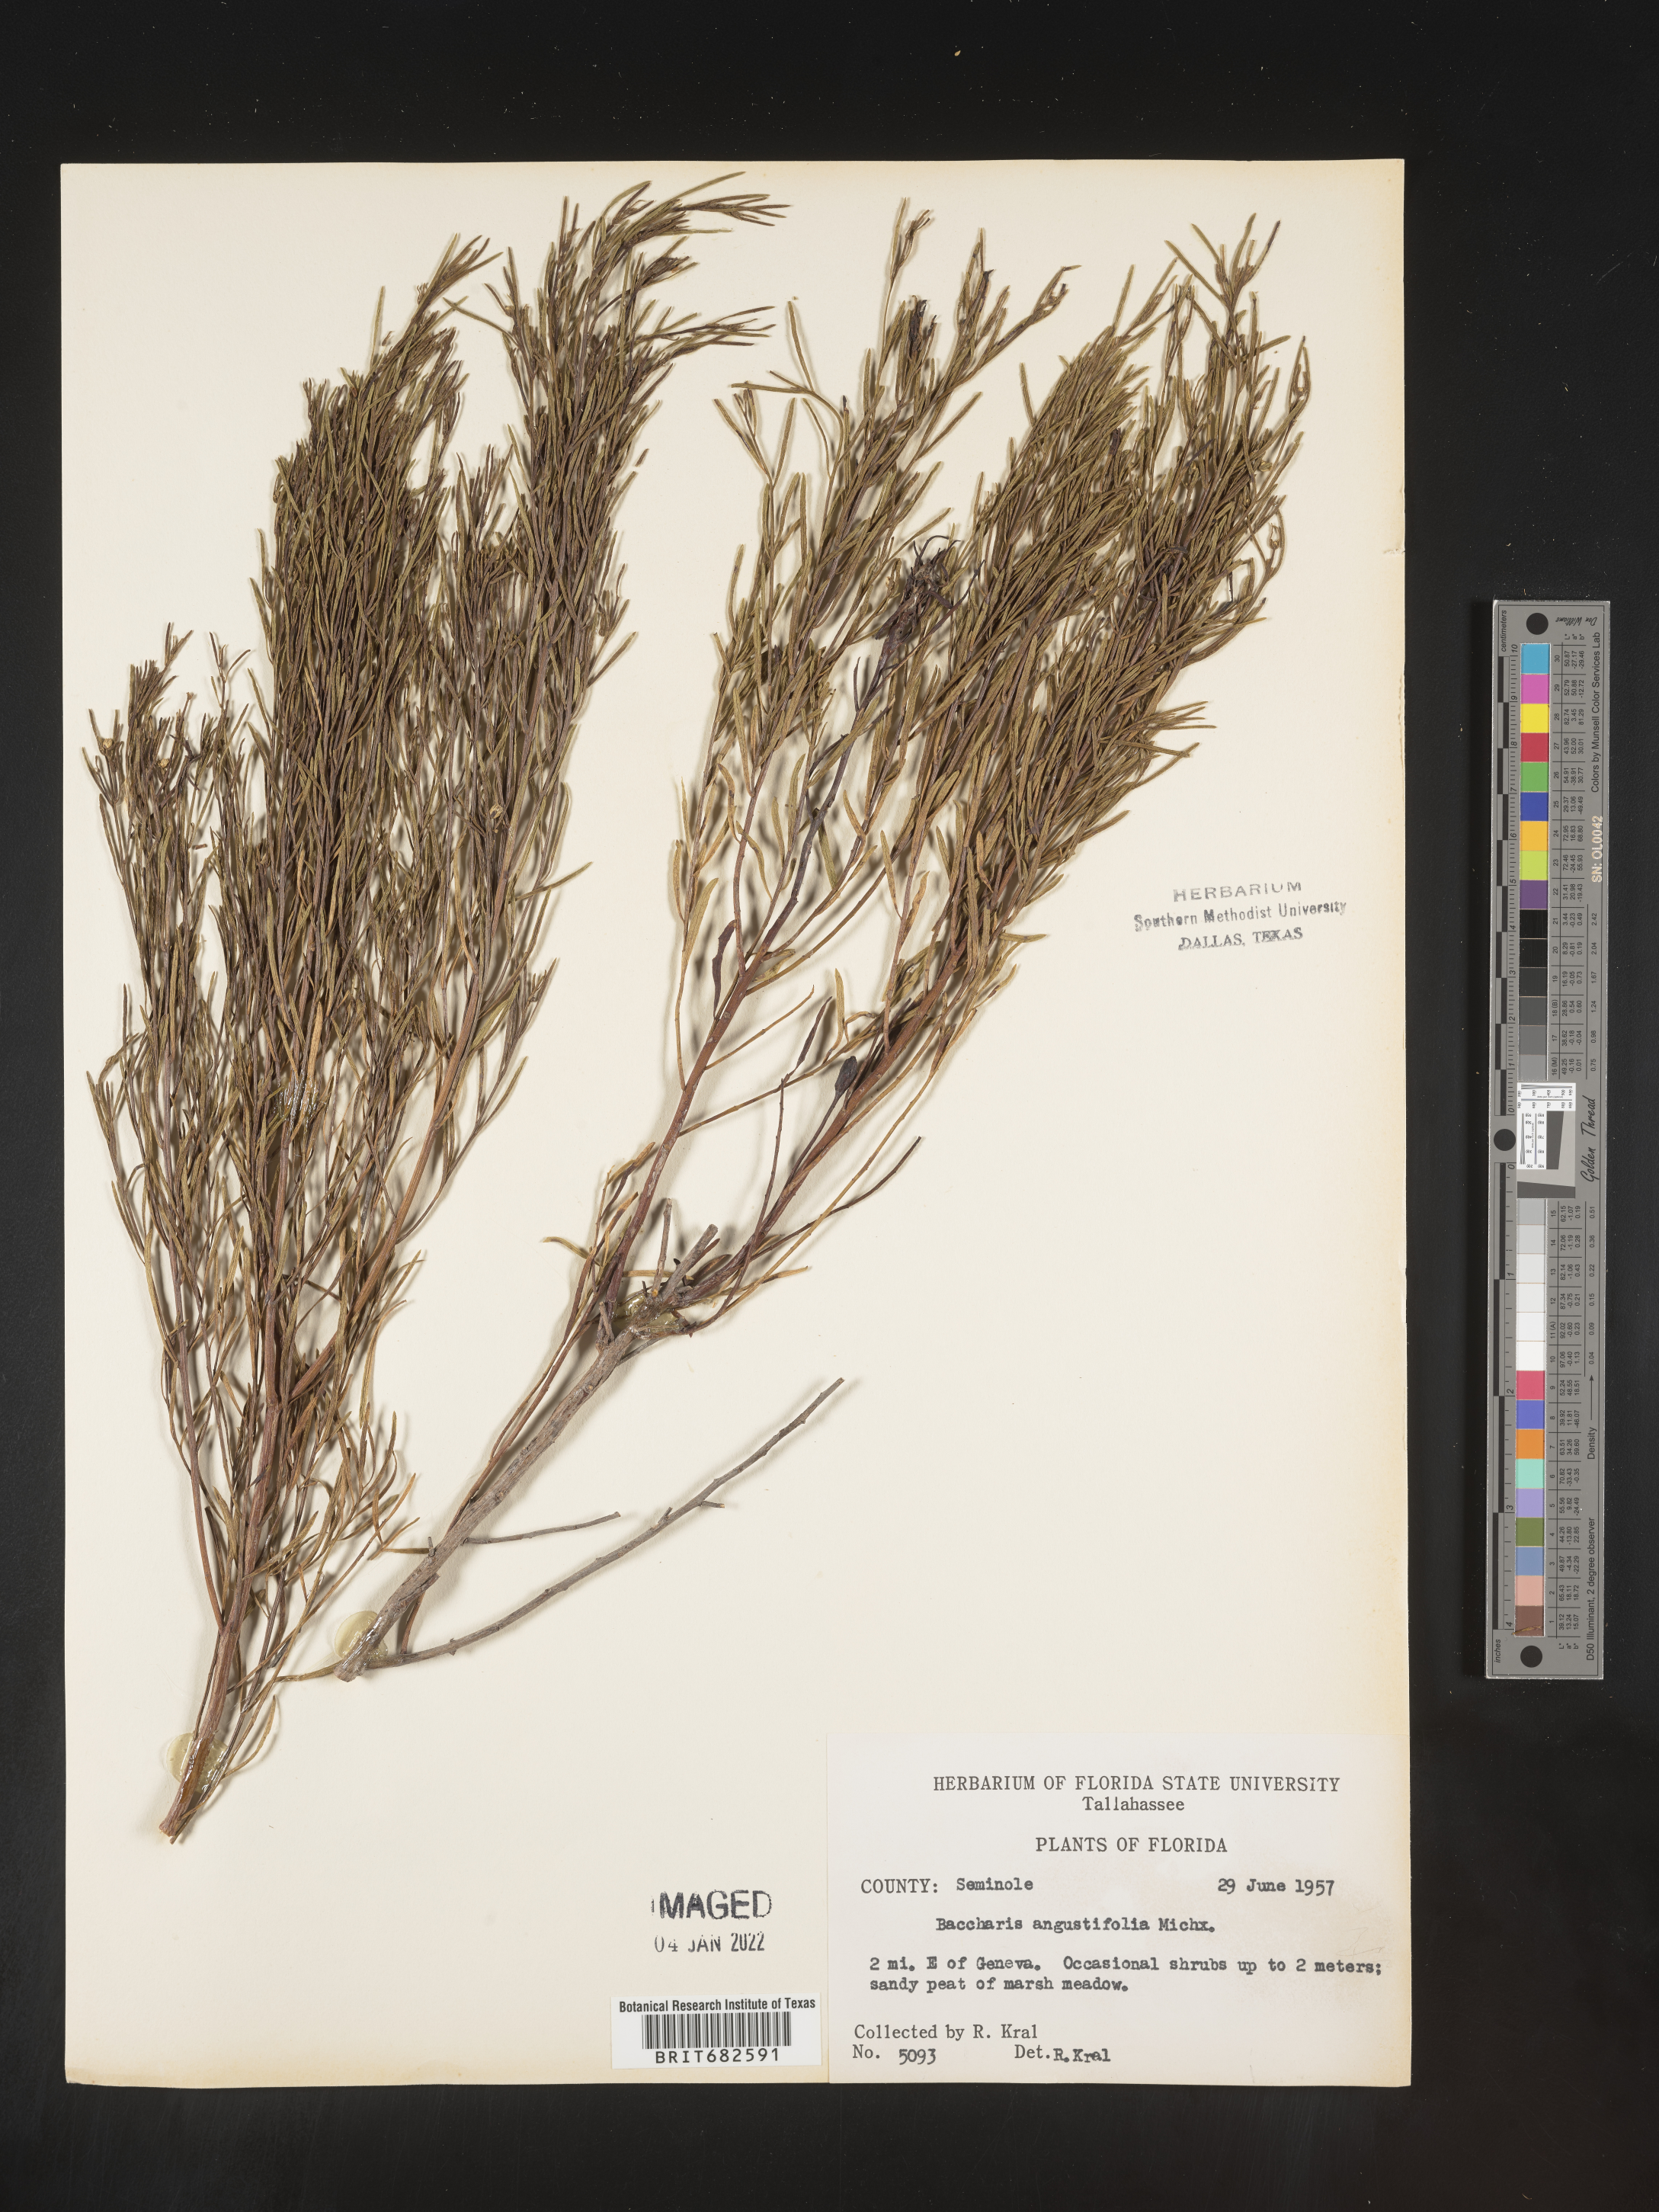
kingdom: Plantae
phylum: Tracheophyta
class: Magnoliopsida
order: Asterales
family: Asteraceae
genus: Baccharis
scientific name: Baccharis angustifolia
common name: Narrow-leaf baccharis
